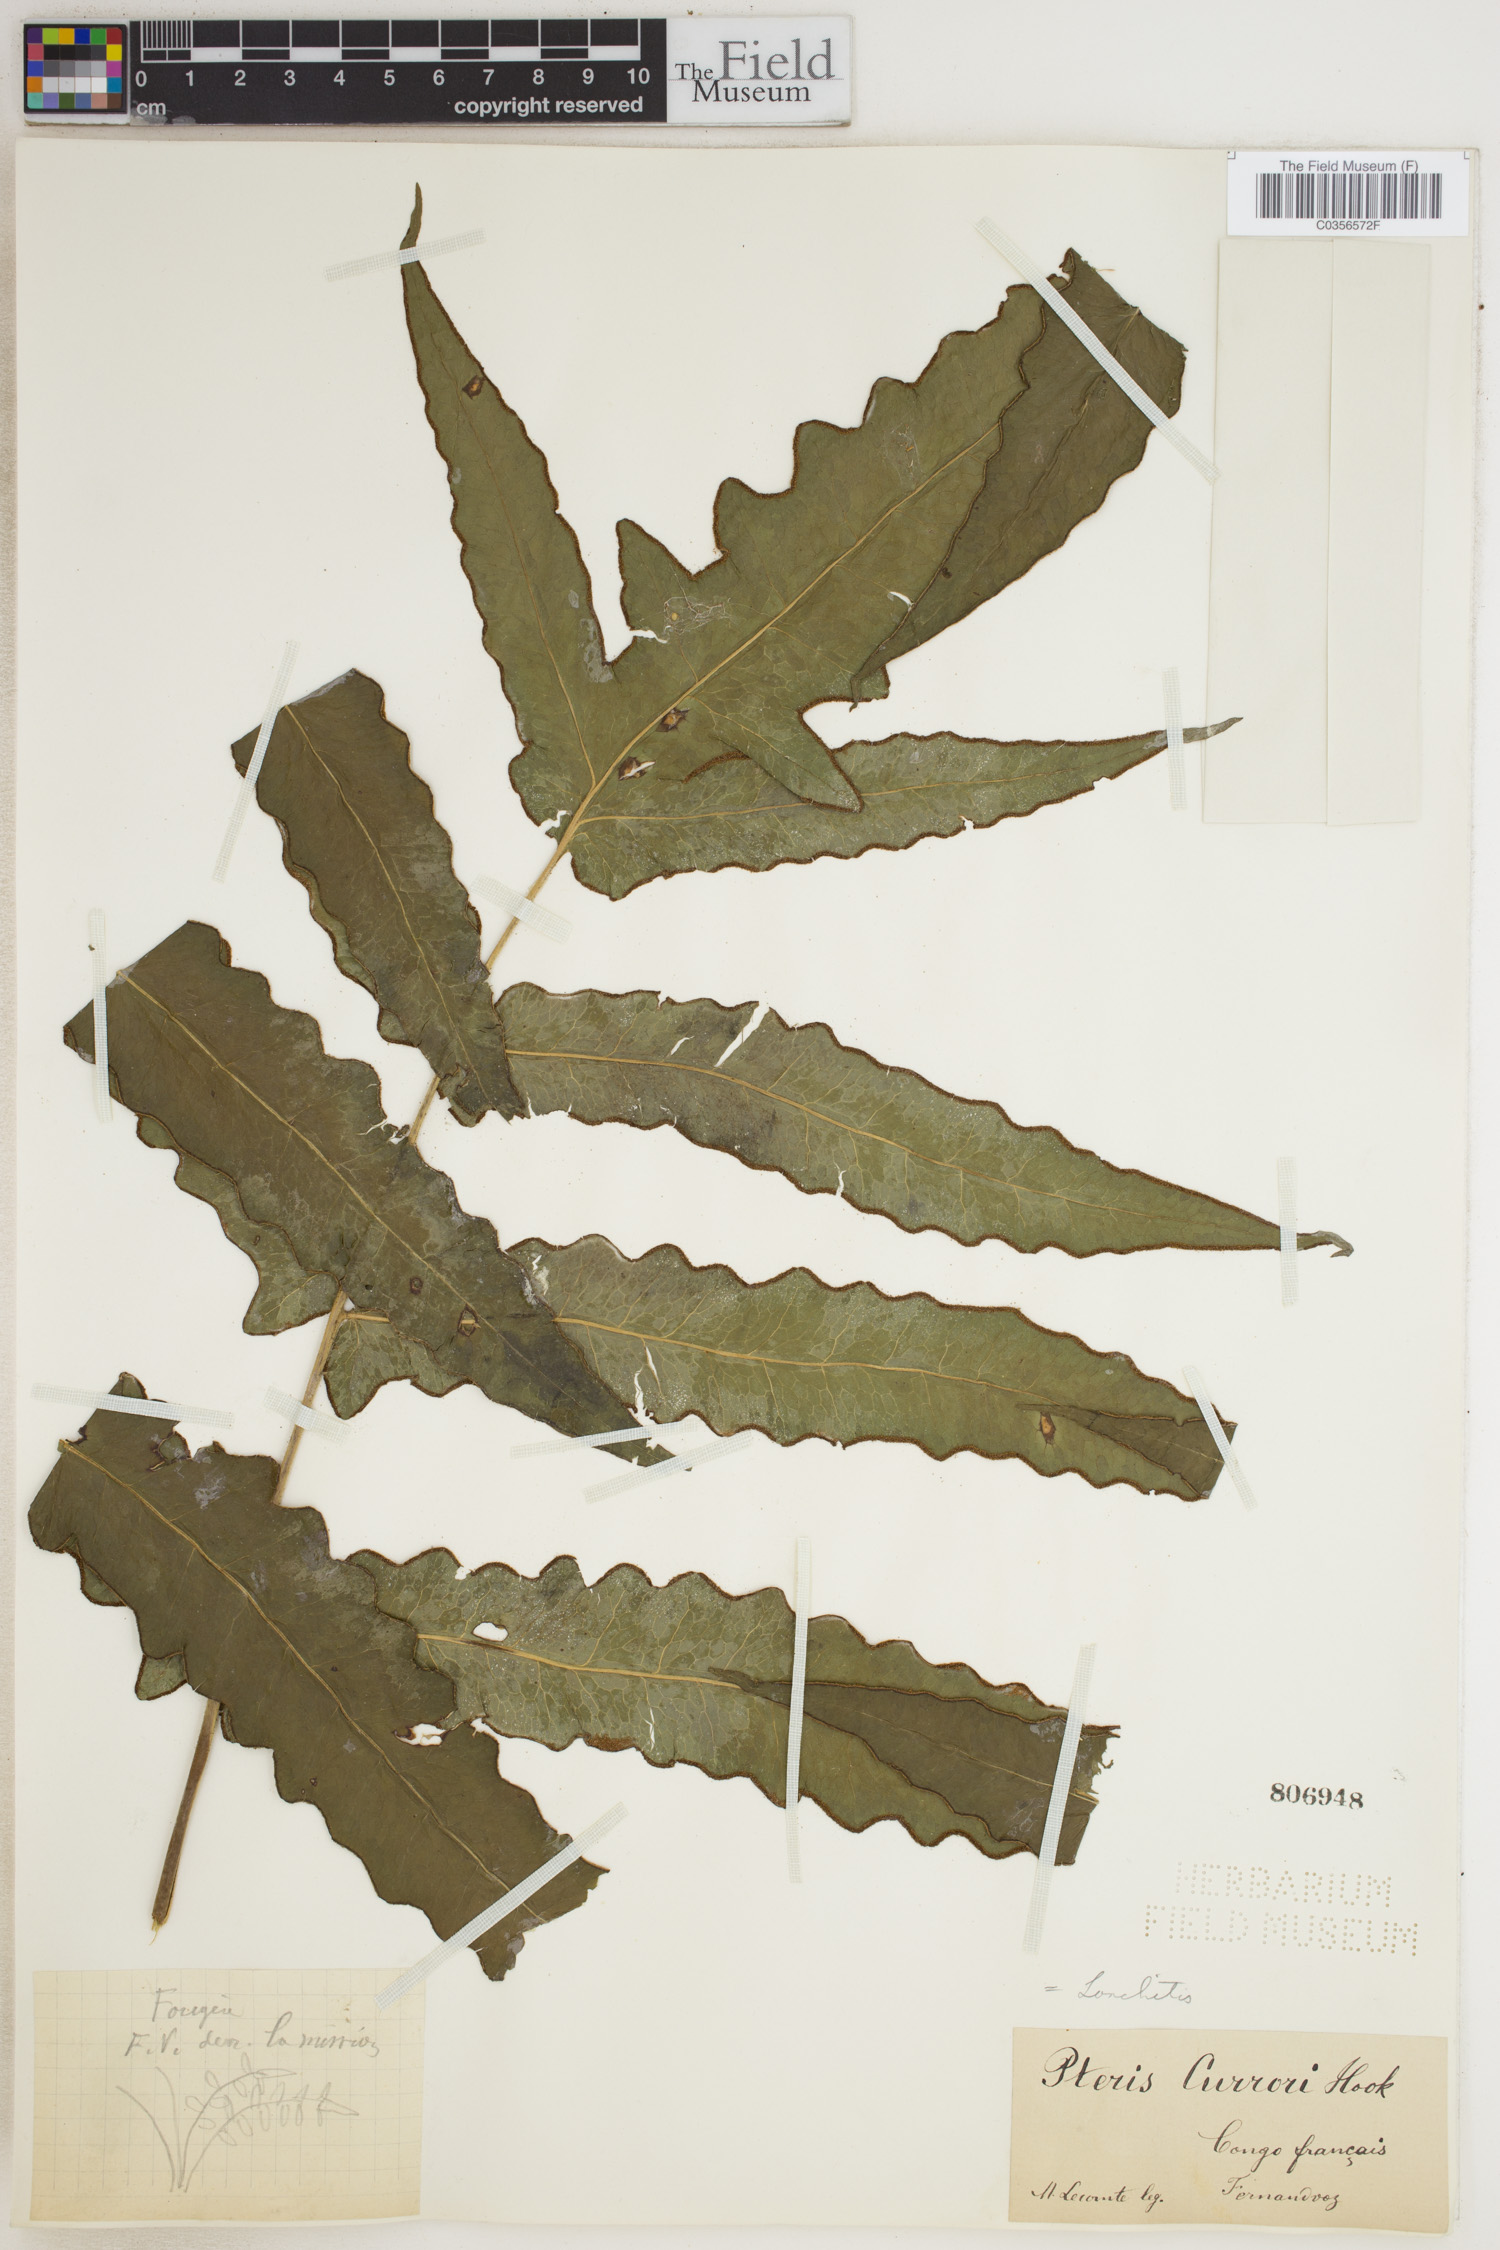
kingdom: Plantae
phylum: Tracheophyta
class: Polypodiopsida
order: Polypodiales
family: Dennstaedtiaceae
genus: Blotiella
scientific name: Blotiella currorii
